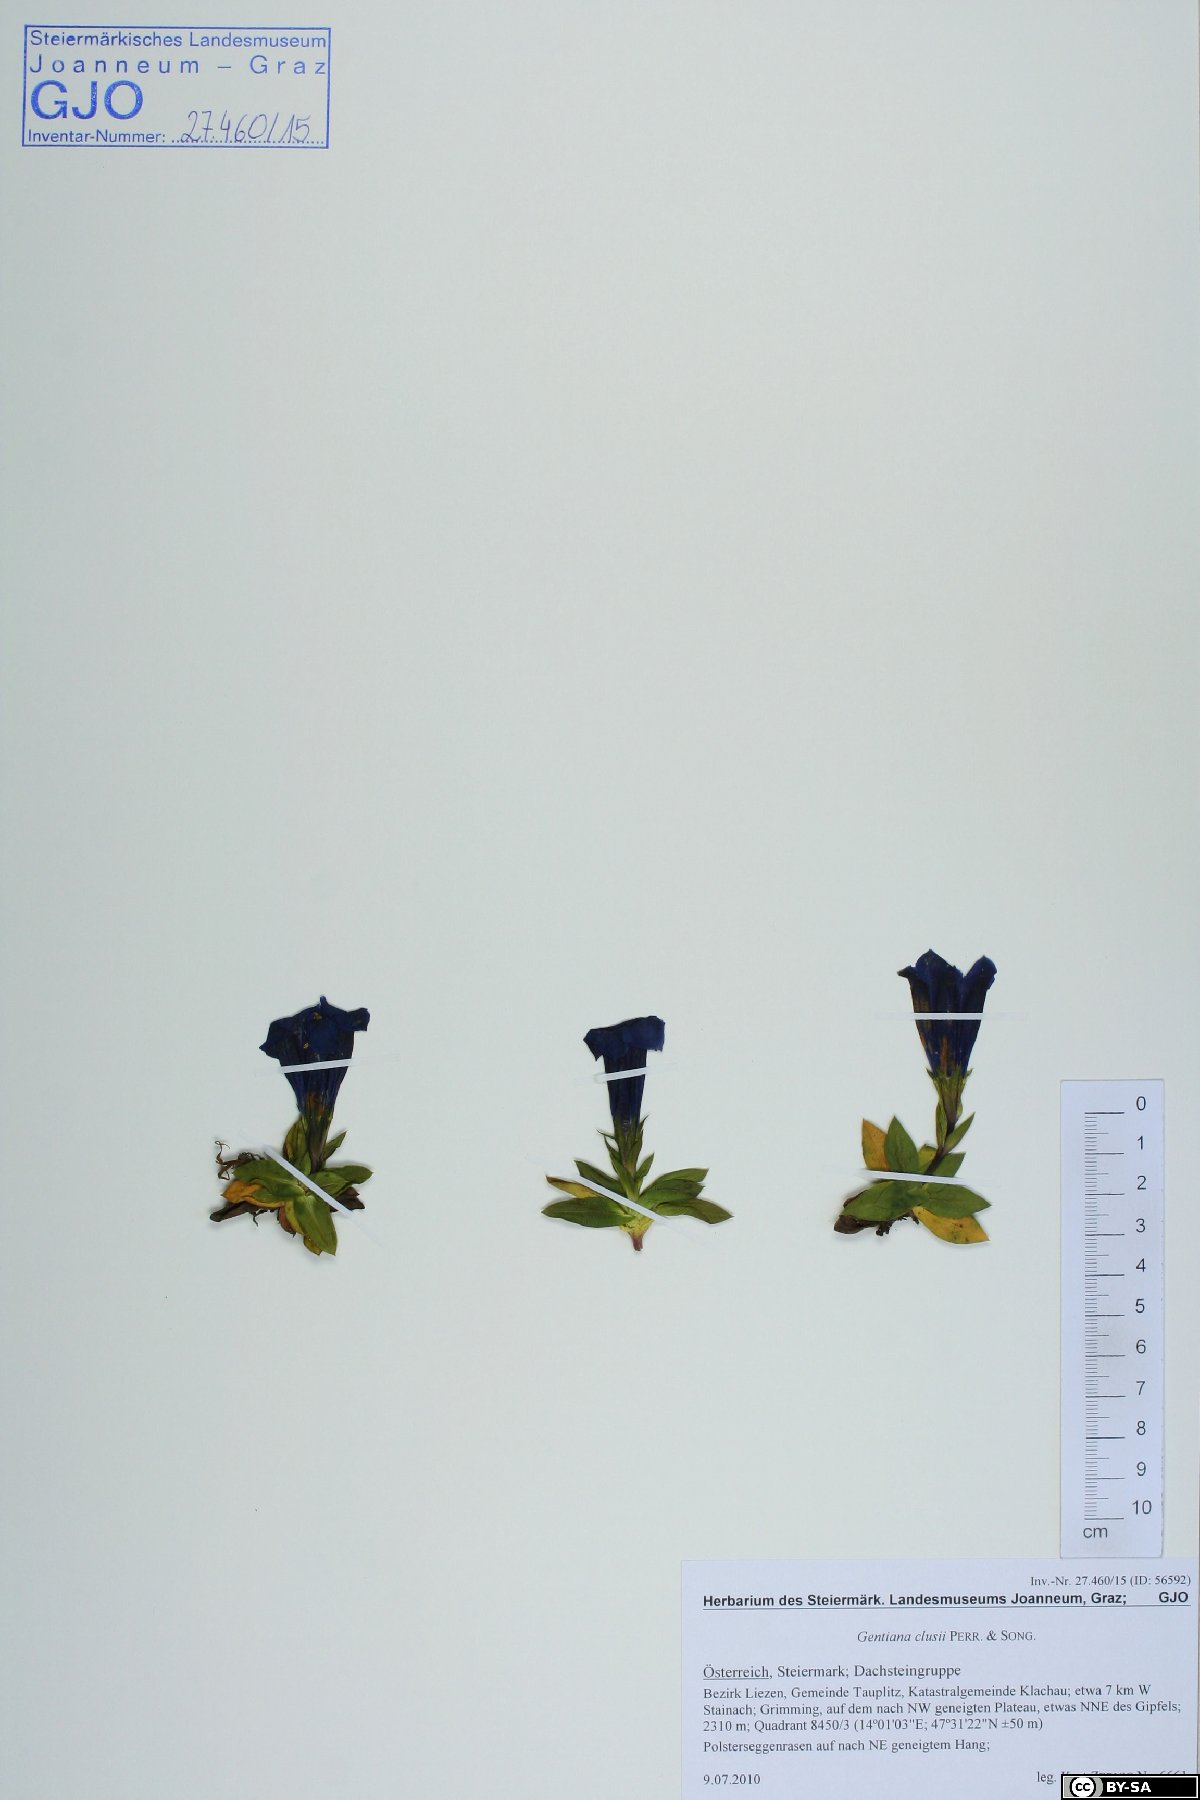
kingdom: Plantae
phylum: Tracheophyta
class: Magnoliopsida
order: Gentianales
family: Gentianaceae
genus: Gentiana
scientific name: Gentiana clusii
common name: Trumpet gentian
